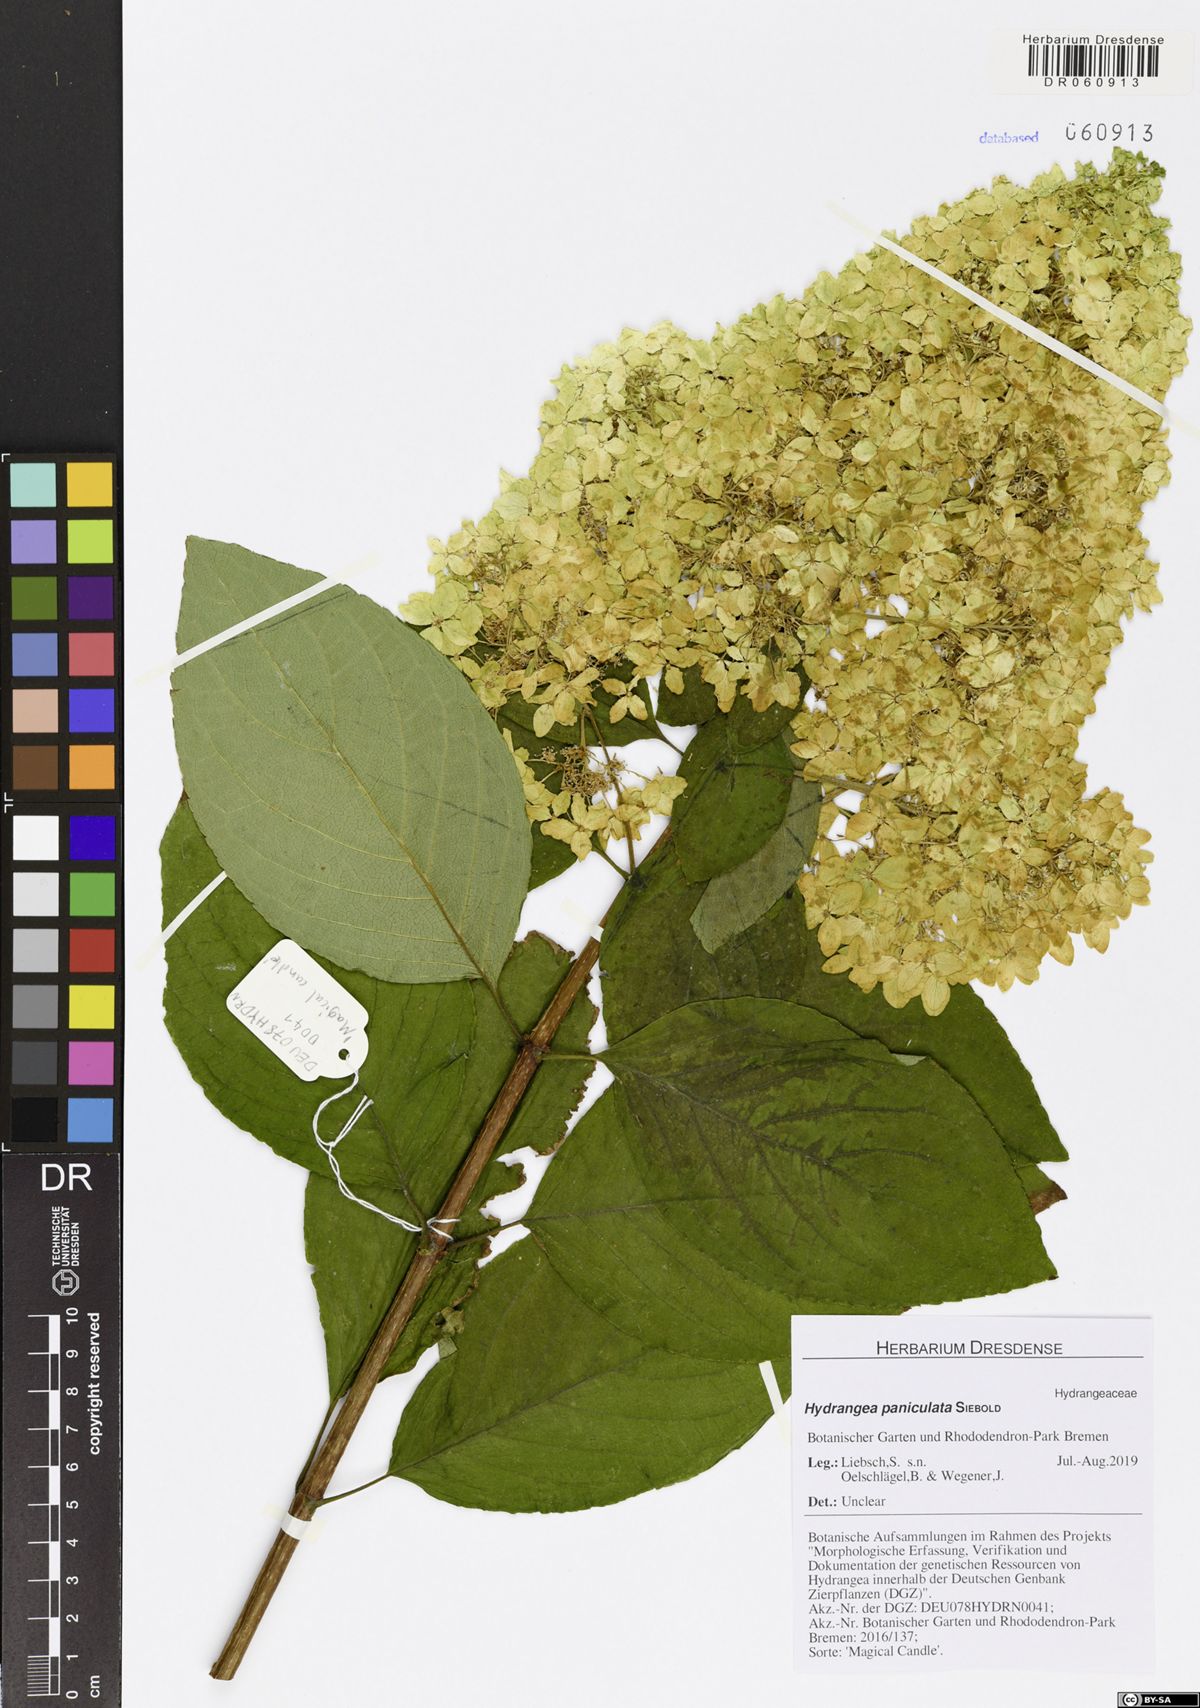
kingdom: Plantae
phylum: Tracheophyta
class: Magnoliopsida
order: Cornales
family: Hydrangeaceae
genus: Hydrangea
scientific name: Hydrangea paniculata
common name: Panicled hydrangea
